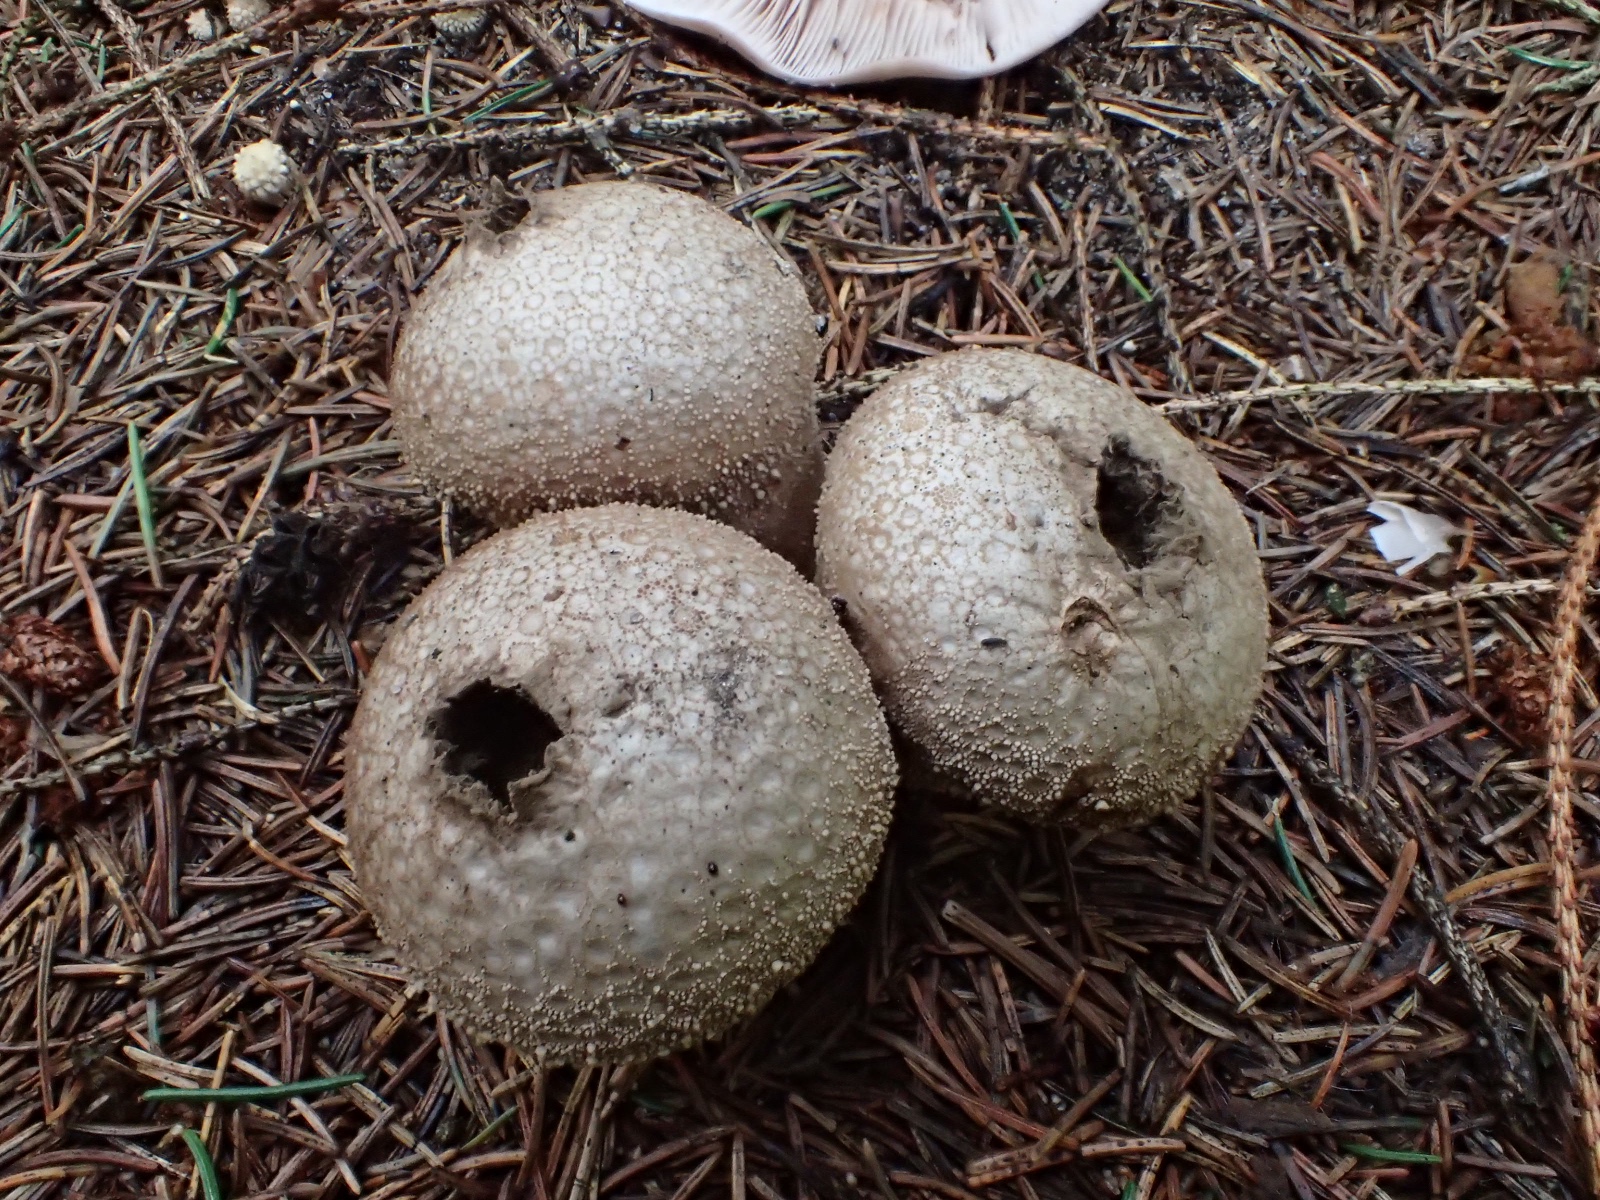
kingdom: Fungi
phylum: Basidiomycota
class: Agaricomycetes
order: Agaricales
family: Lycoperdaceae
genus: Lycoperdon
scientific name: Lycoperdon perlatum
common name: krystal-støvbold
